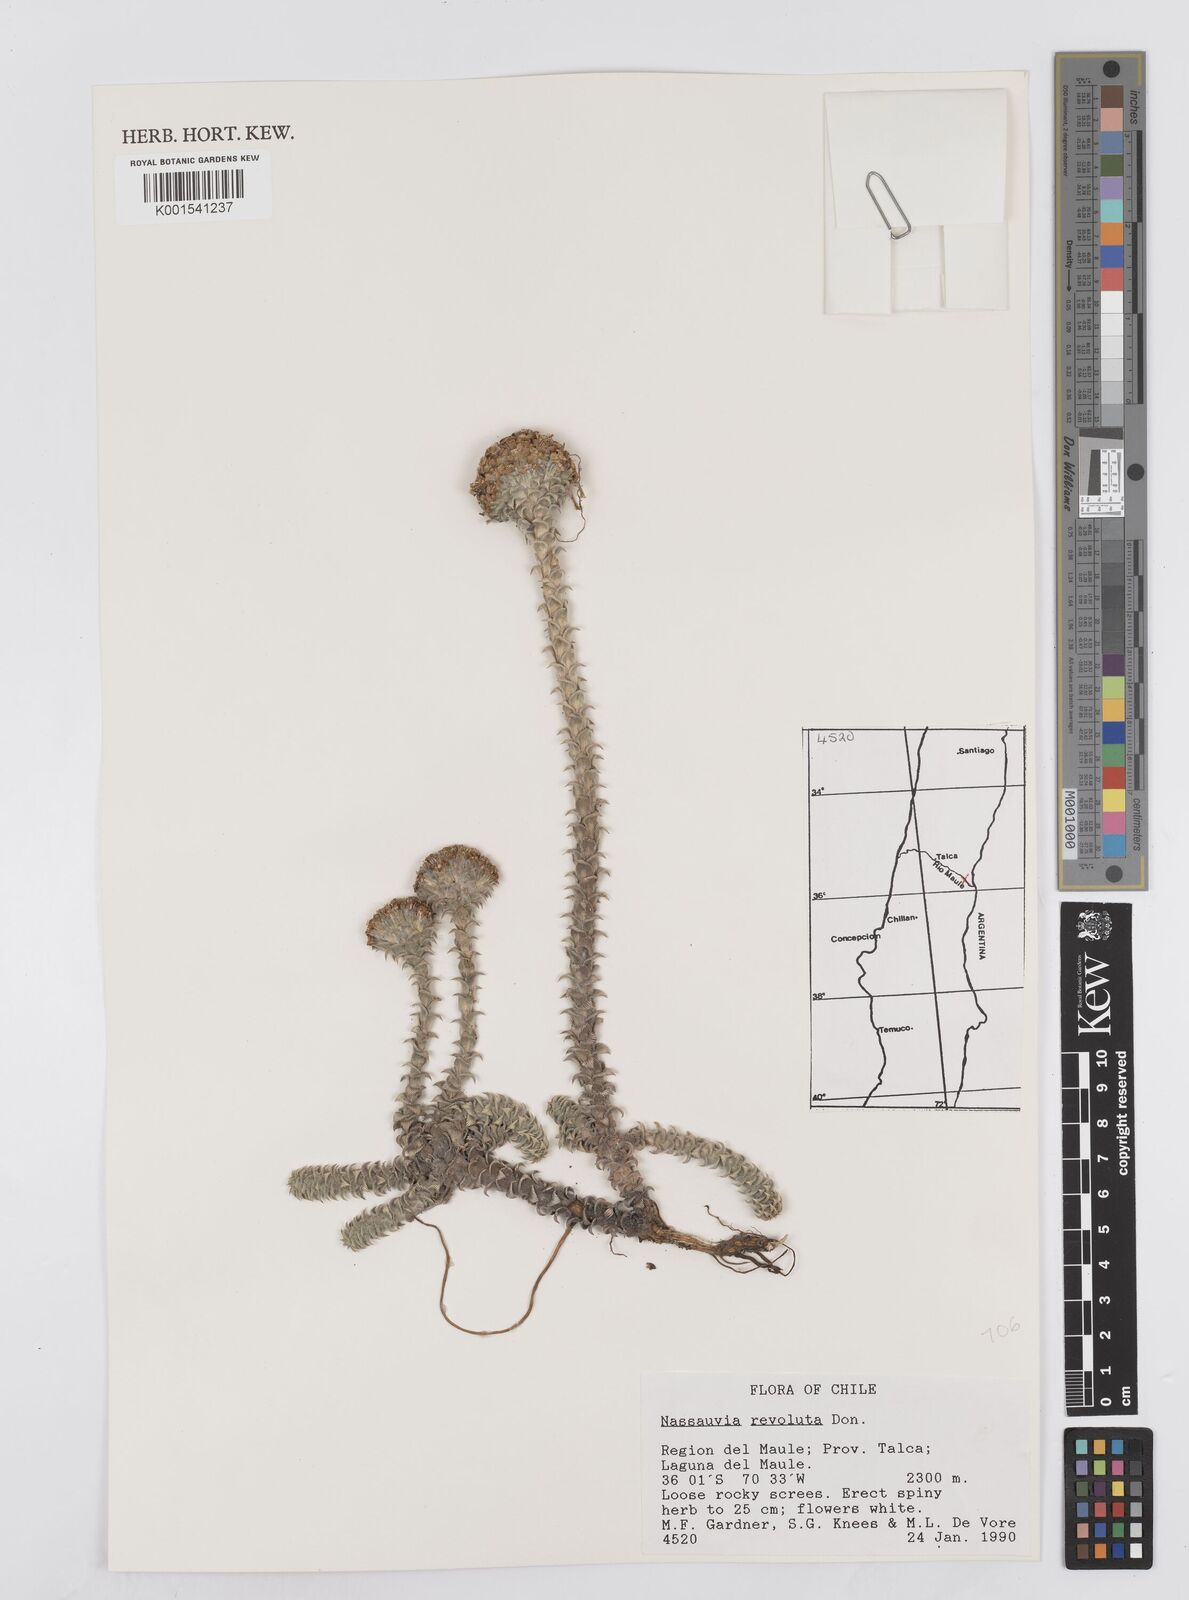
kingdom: Plantae
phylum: Tracheophyta
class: Magnoliopsida
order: Asterales
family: Asteraceae
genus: Nassauvia
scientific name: Nassauvia revoluta
